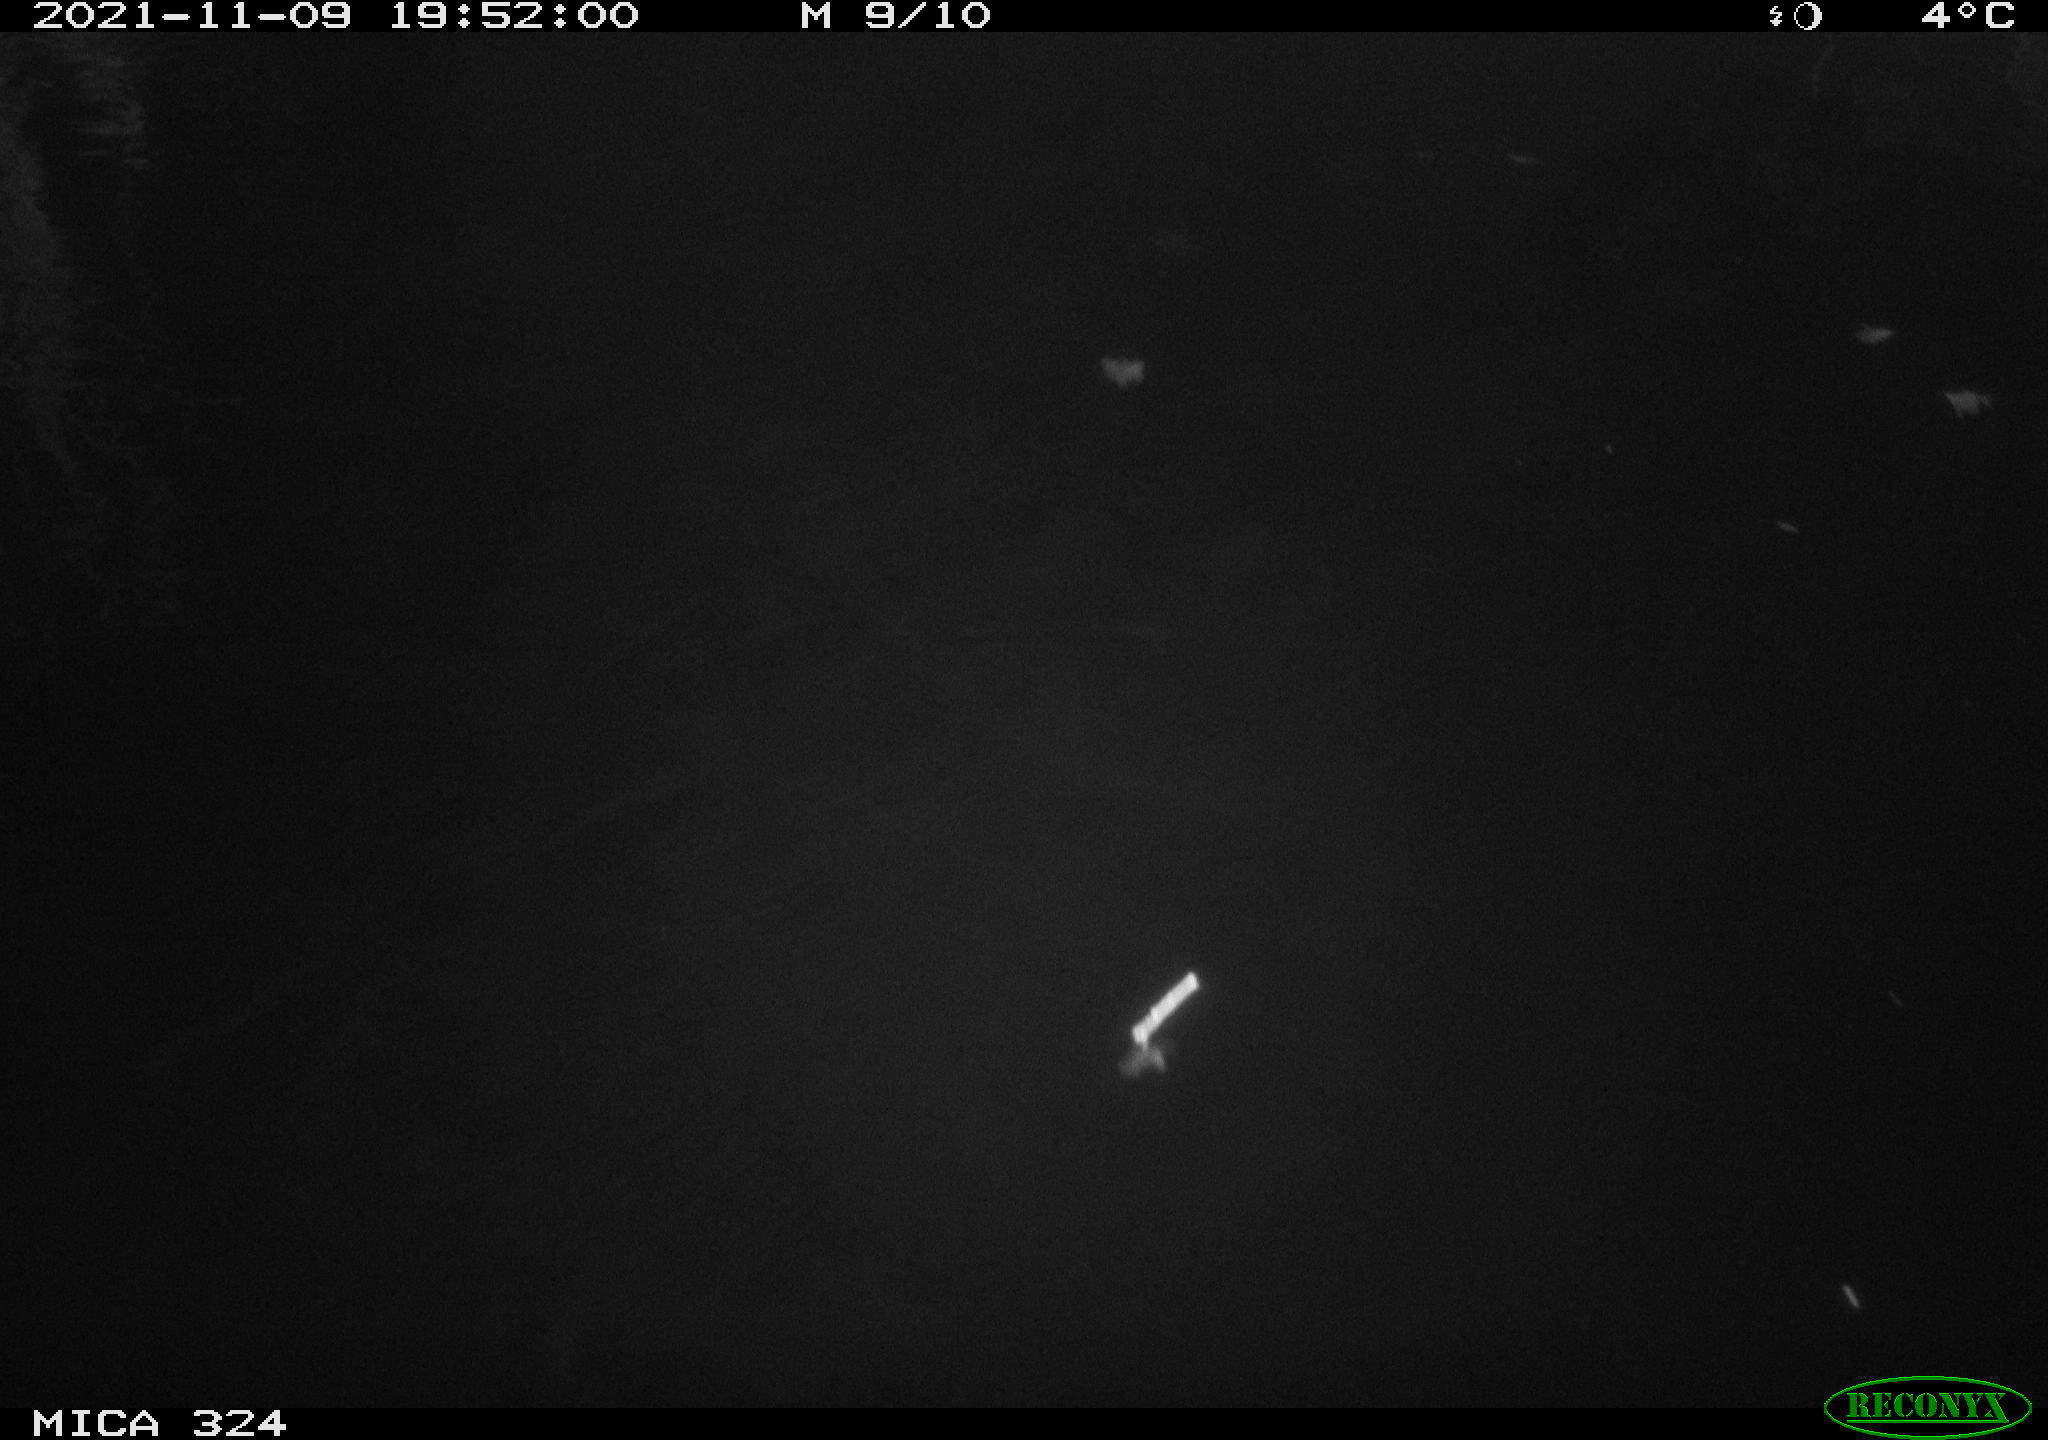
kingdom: Animalia
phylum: Chordata
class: Mammalia
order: Rodentia
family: Cricetidae
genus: Ondatra
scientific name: Ondatra zibethicus
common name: Muskrat
